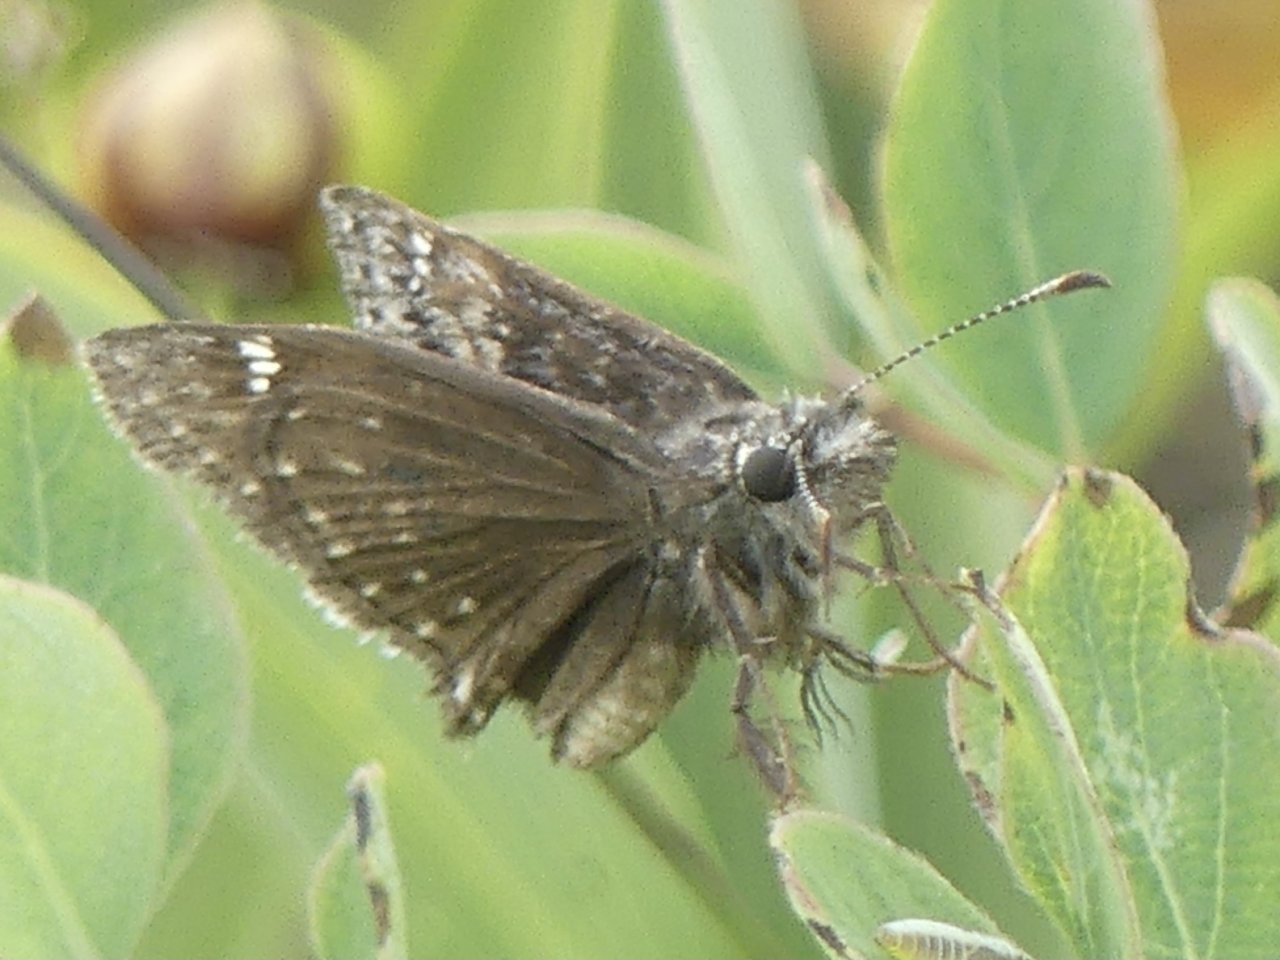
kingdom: Animalia
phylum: Arthropoda
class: Insecta
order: Lepidoptera
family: Hesperiidae
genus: Erynnis
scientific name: Erynnis icelus
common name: Dreamy Duskywing
